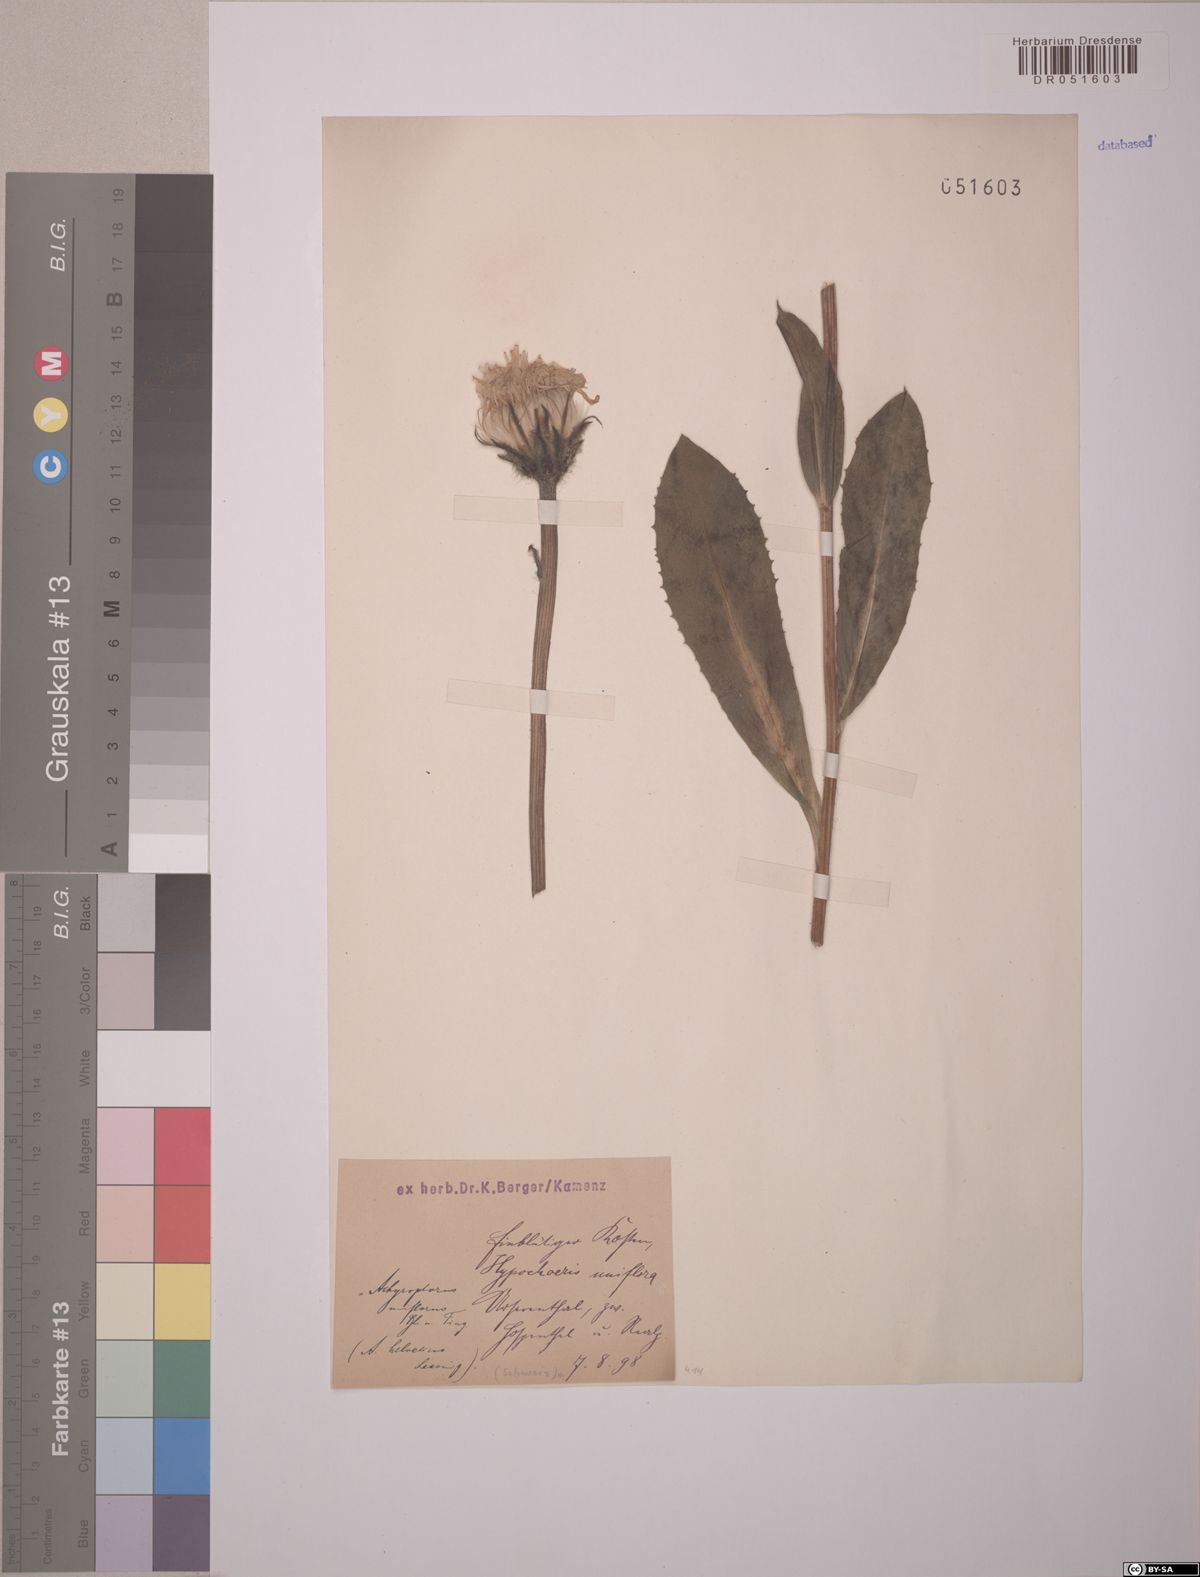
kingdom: Plantae
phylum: Tracheophyta
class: Magnoliopsida
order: Asterales
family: Asteraceae
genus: Trommsdorffia
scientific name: Trommsdorffia uniflora
